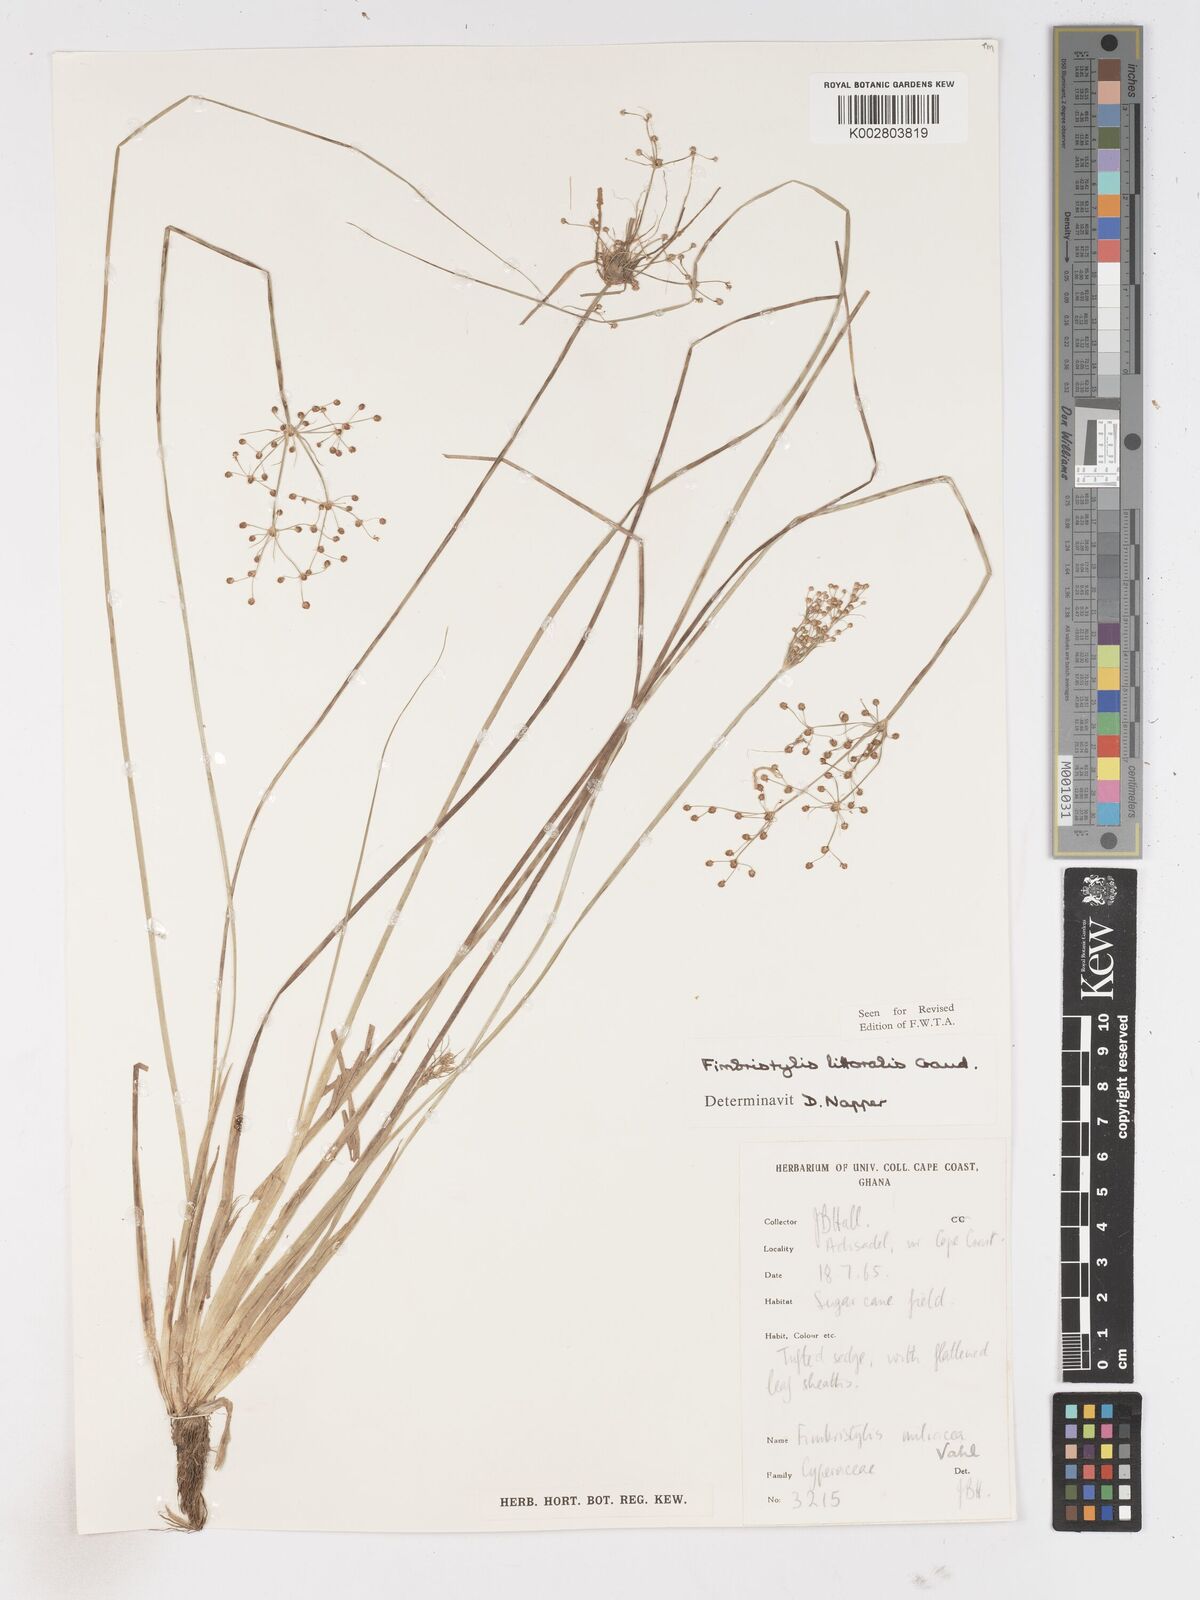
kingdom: Plantae
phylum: Tracheophyta
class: Liliopsida
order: Poales
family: Cyperaceae
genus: Fimbristylis
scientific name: Fimbristylis littoralis
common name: Fimbry
